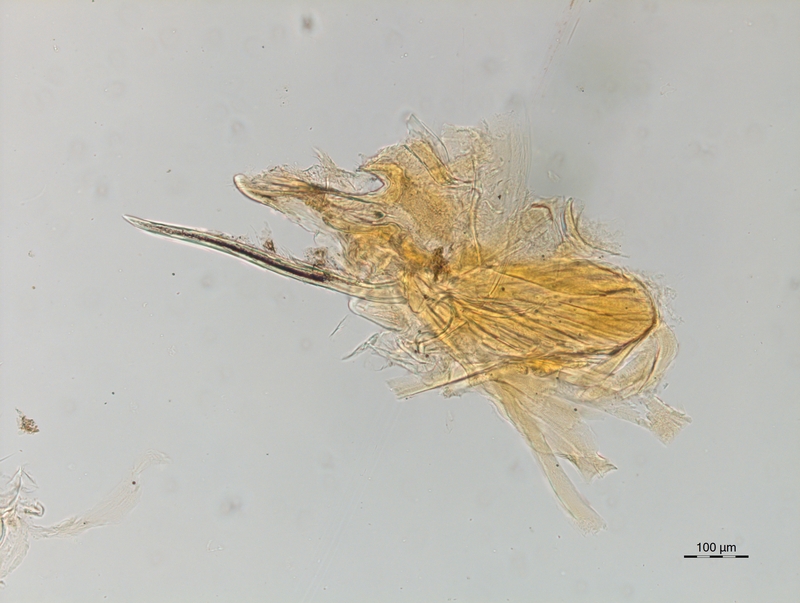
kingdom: Animalia
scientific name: Animalia
